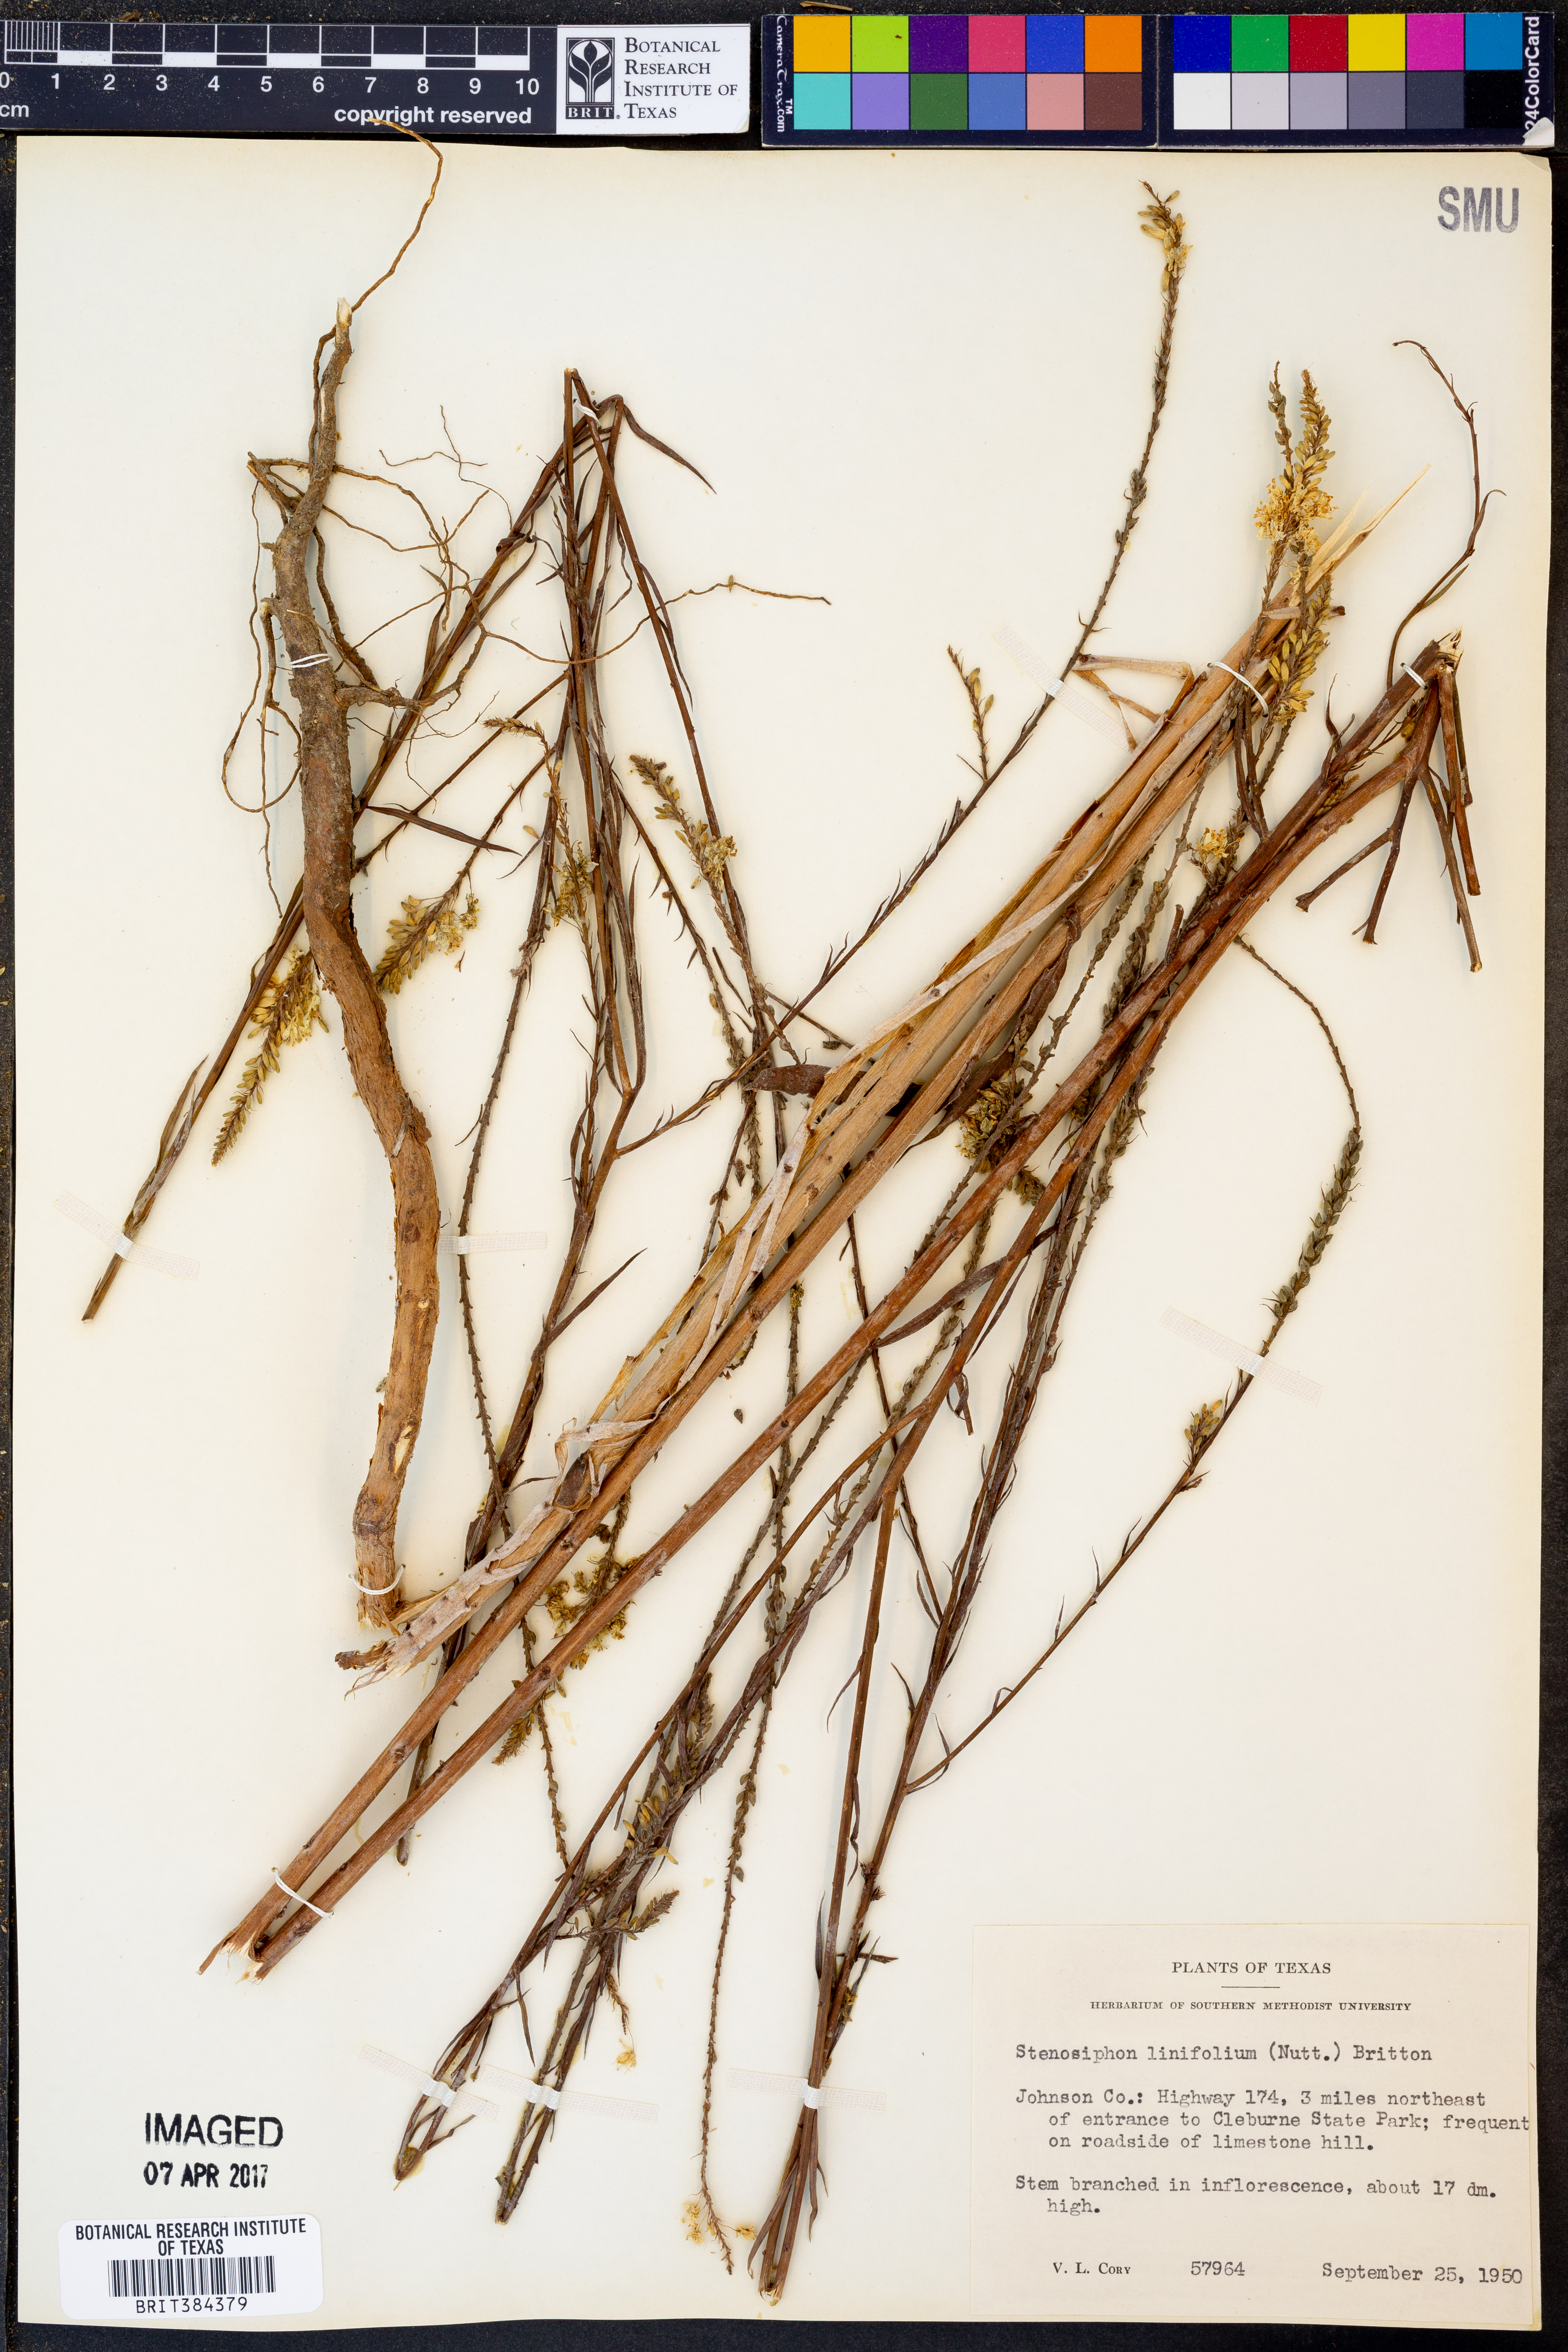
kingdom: Plantae
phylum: Tracheophyta
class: Magnoliopsida
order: Myrtales
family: Onagraceae
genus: Oenothera
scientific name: Oenothera glaucifolia
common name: False gaura
